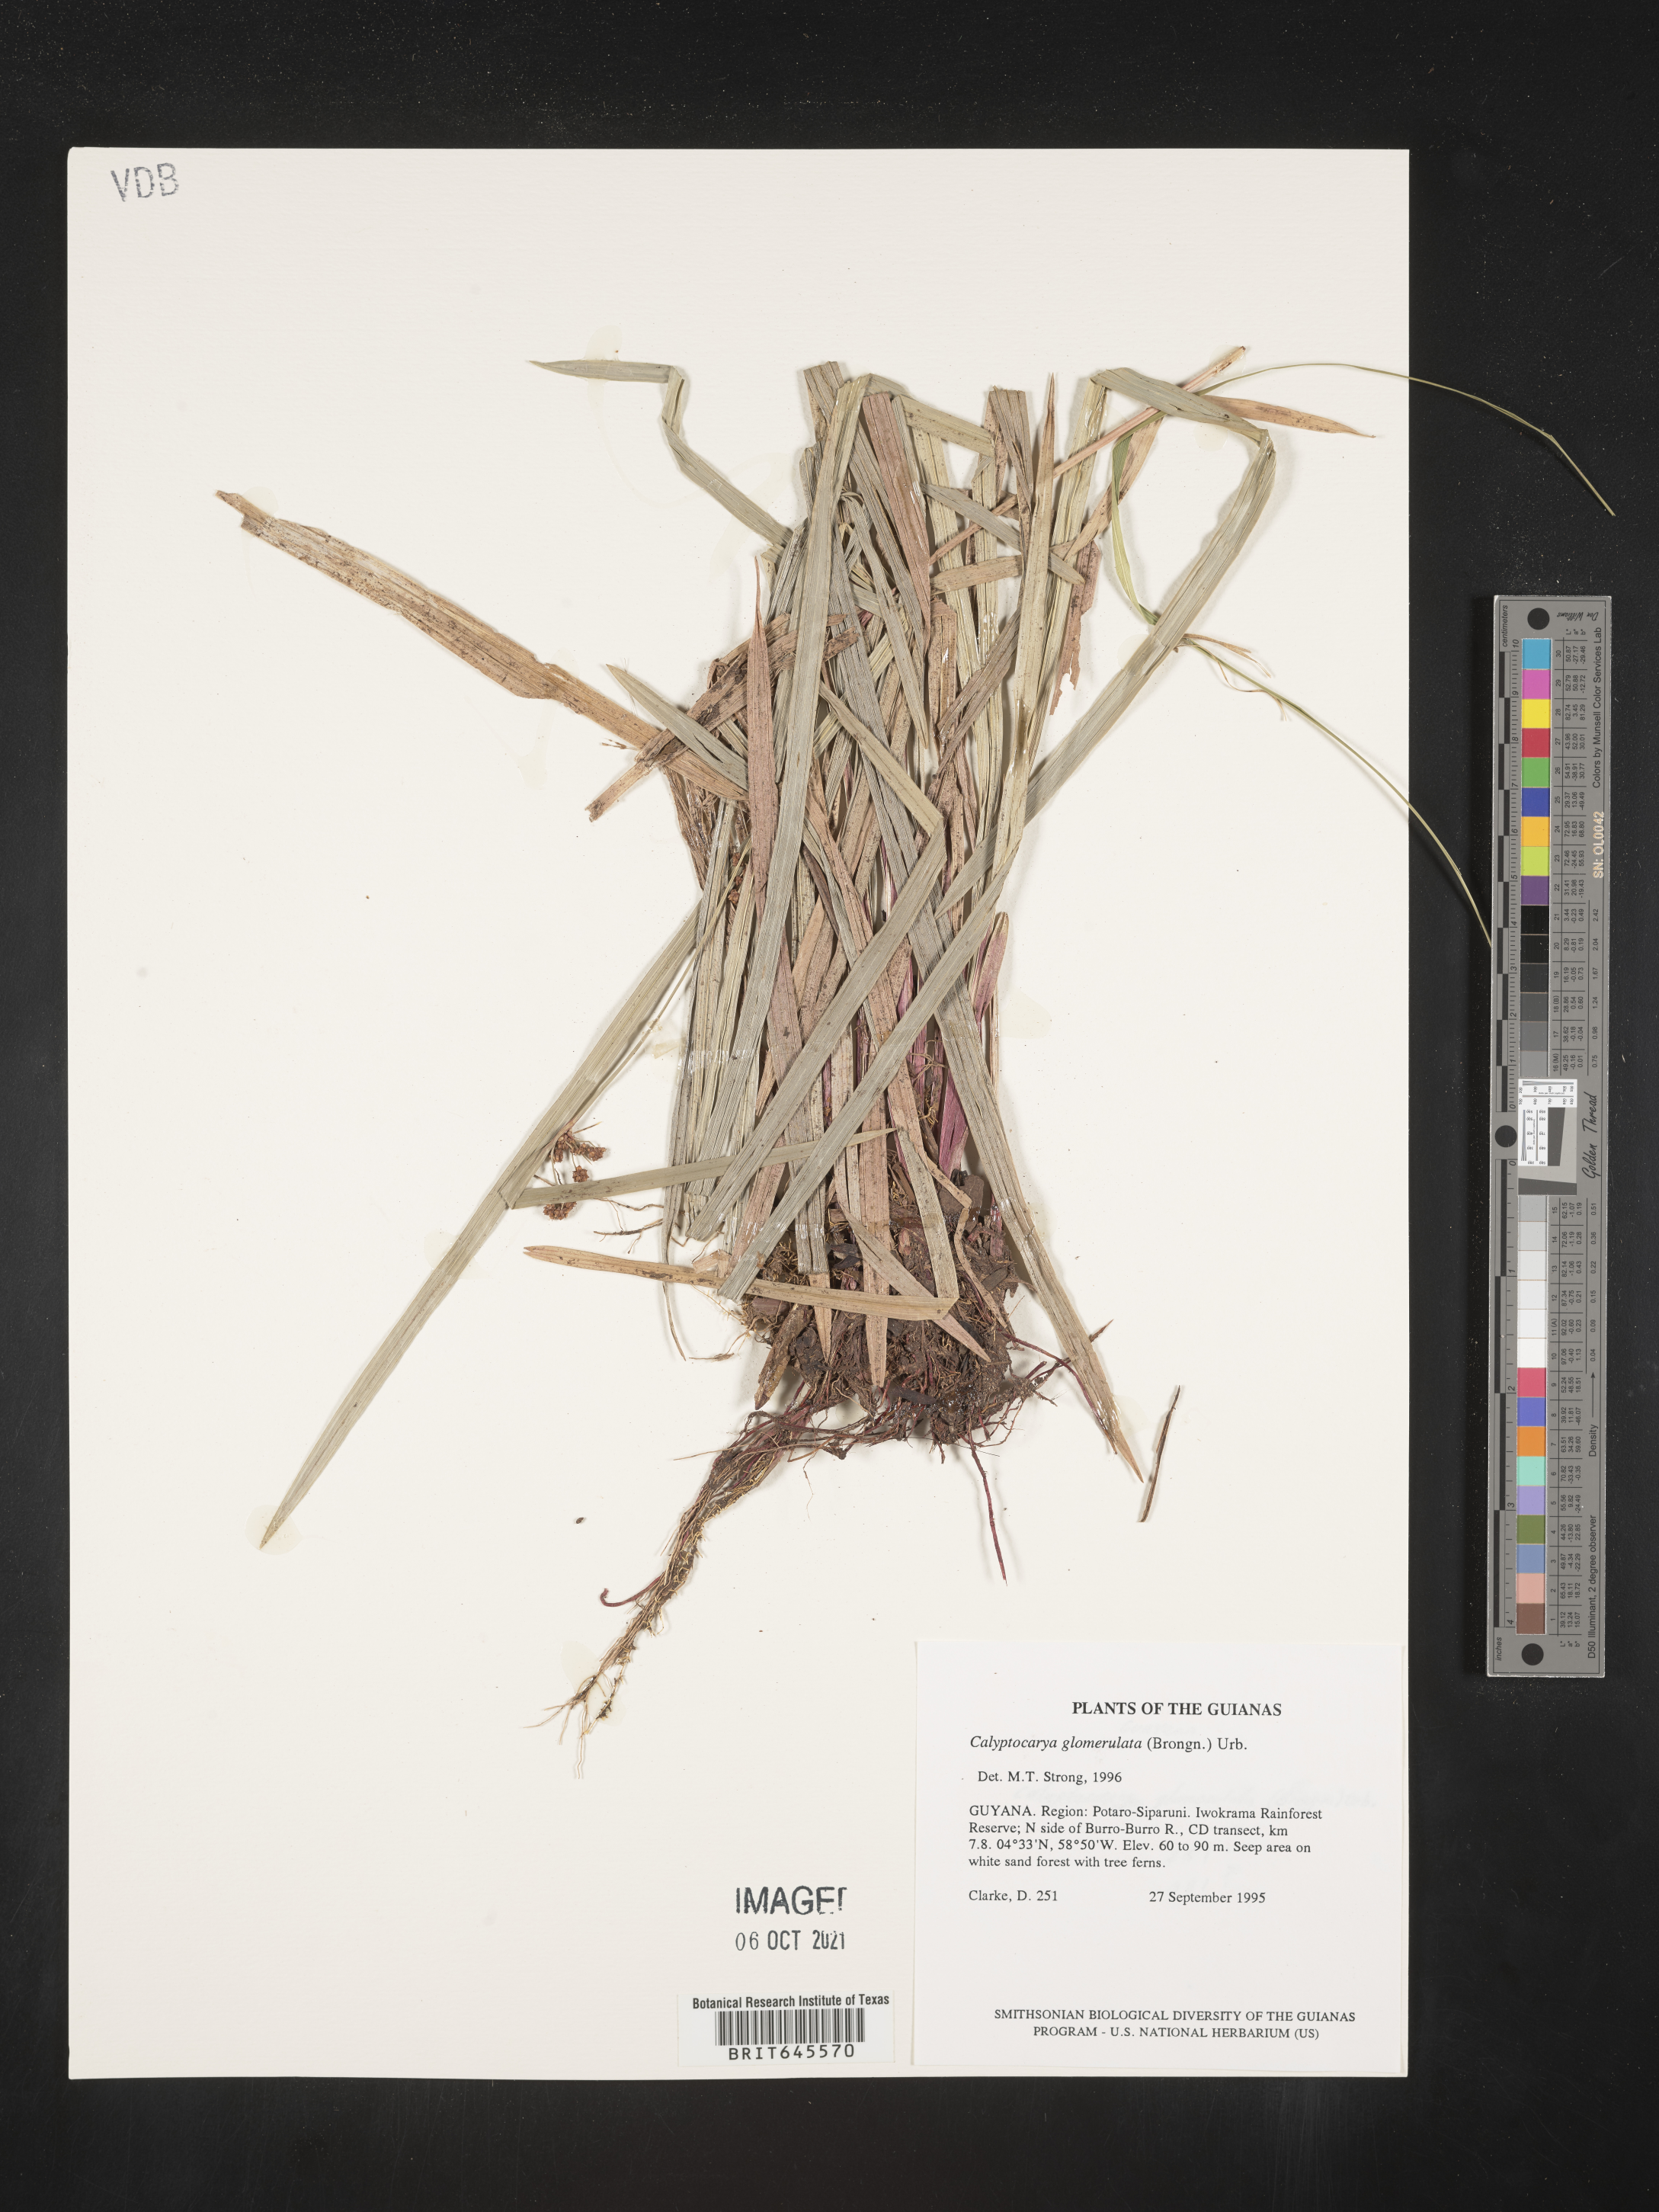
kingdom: Plantae
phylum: Tracheophyta
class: Liliopsida
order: Poales
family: Cyperaceae
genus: Calyptrocarya
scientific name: Calyptrocarya glomerulata
